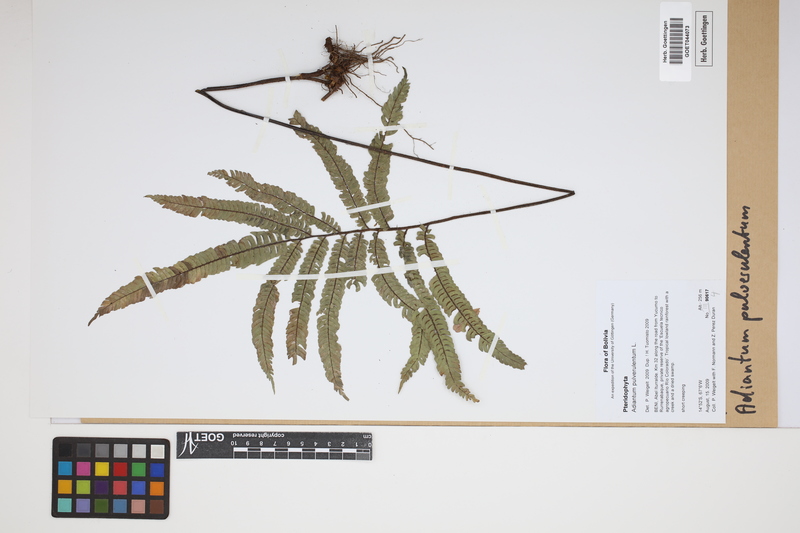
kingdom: Plantae
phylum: Tracheophyta
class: Polypodiopsida
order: Polypodiales
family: Pteridaceae
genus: Adiantum
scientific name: Adiantum pulverulentum
